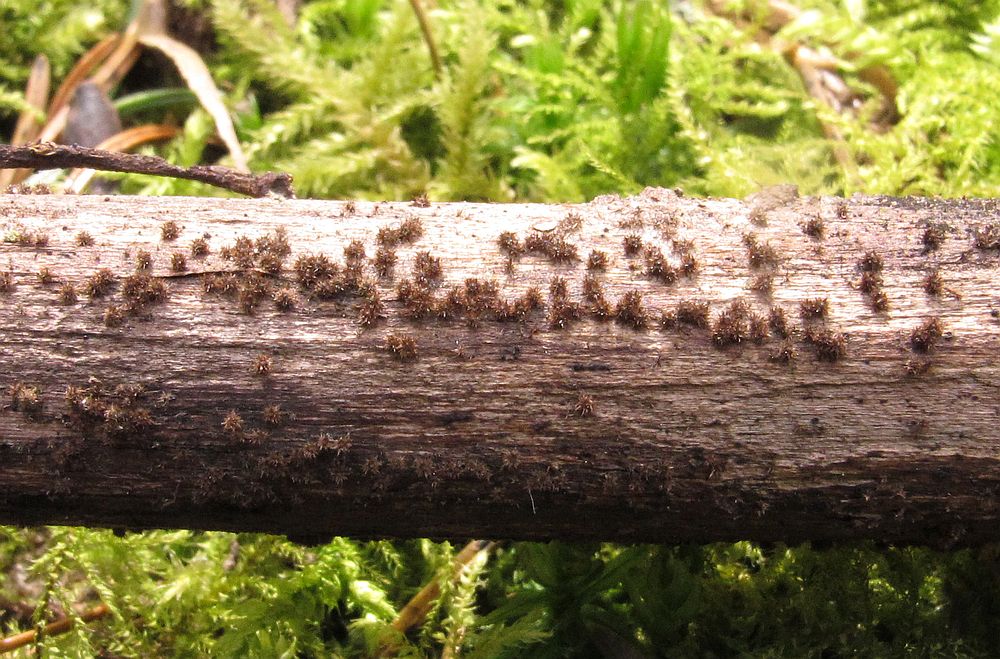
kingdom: Fungi
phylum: Ascomycota
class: Sordariomycetes
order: Sordariales
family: Helminthosphaeriaceae
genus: Echinosphaeria
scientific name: Echinosphaeria canescens
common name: brun børstekerne
